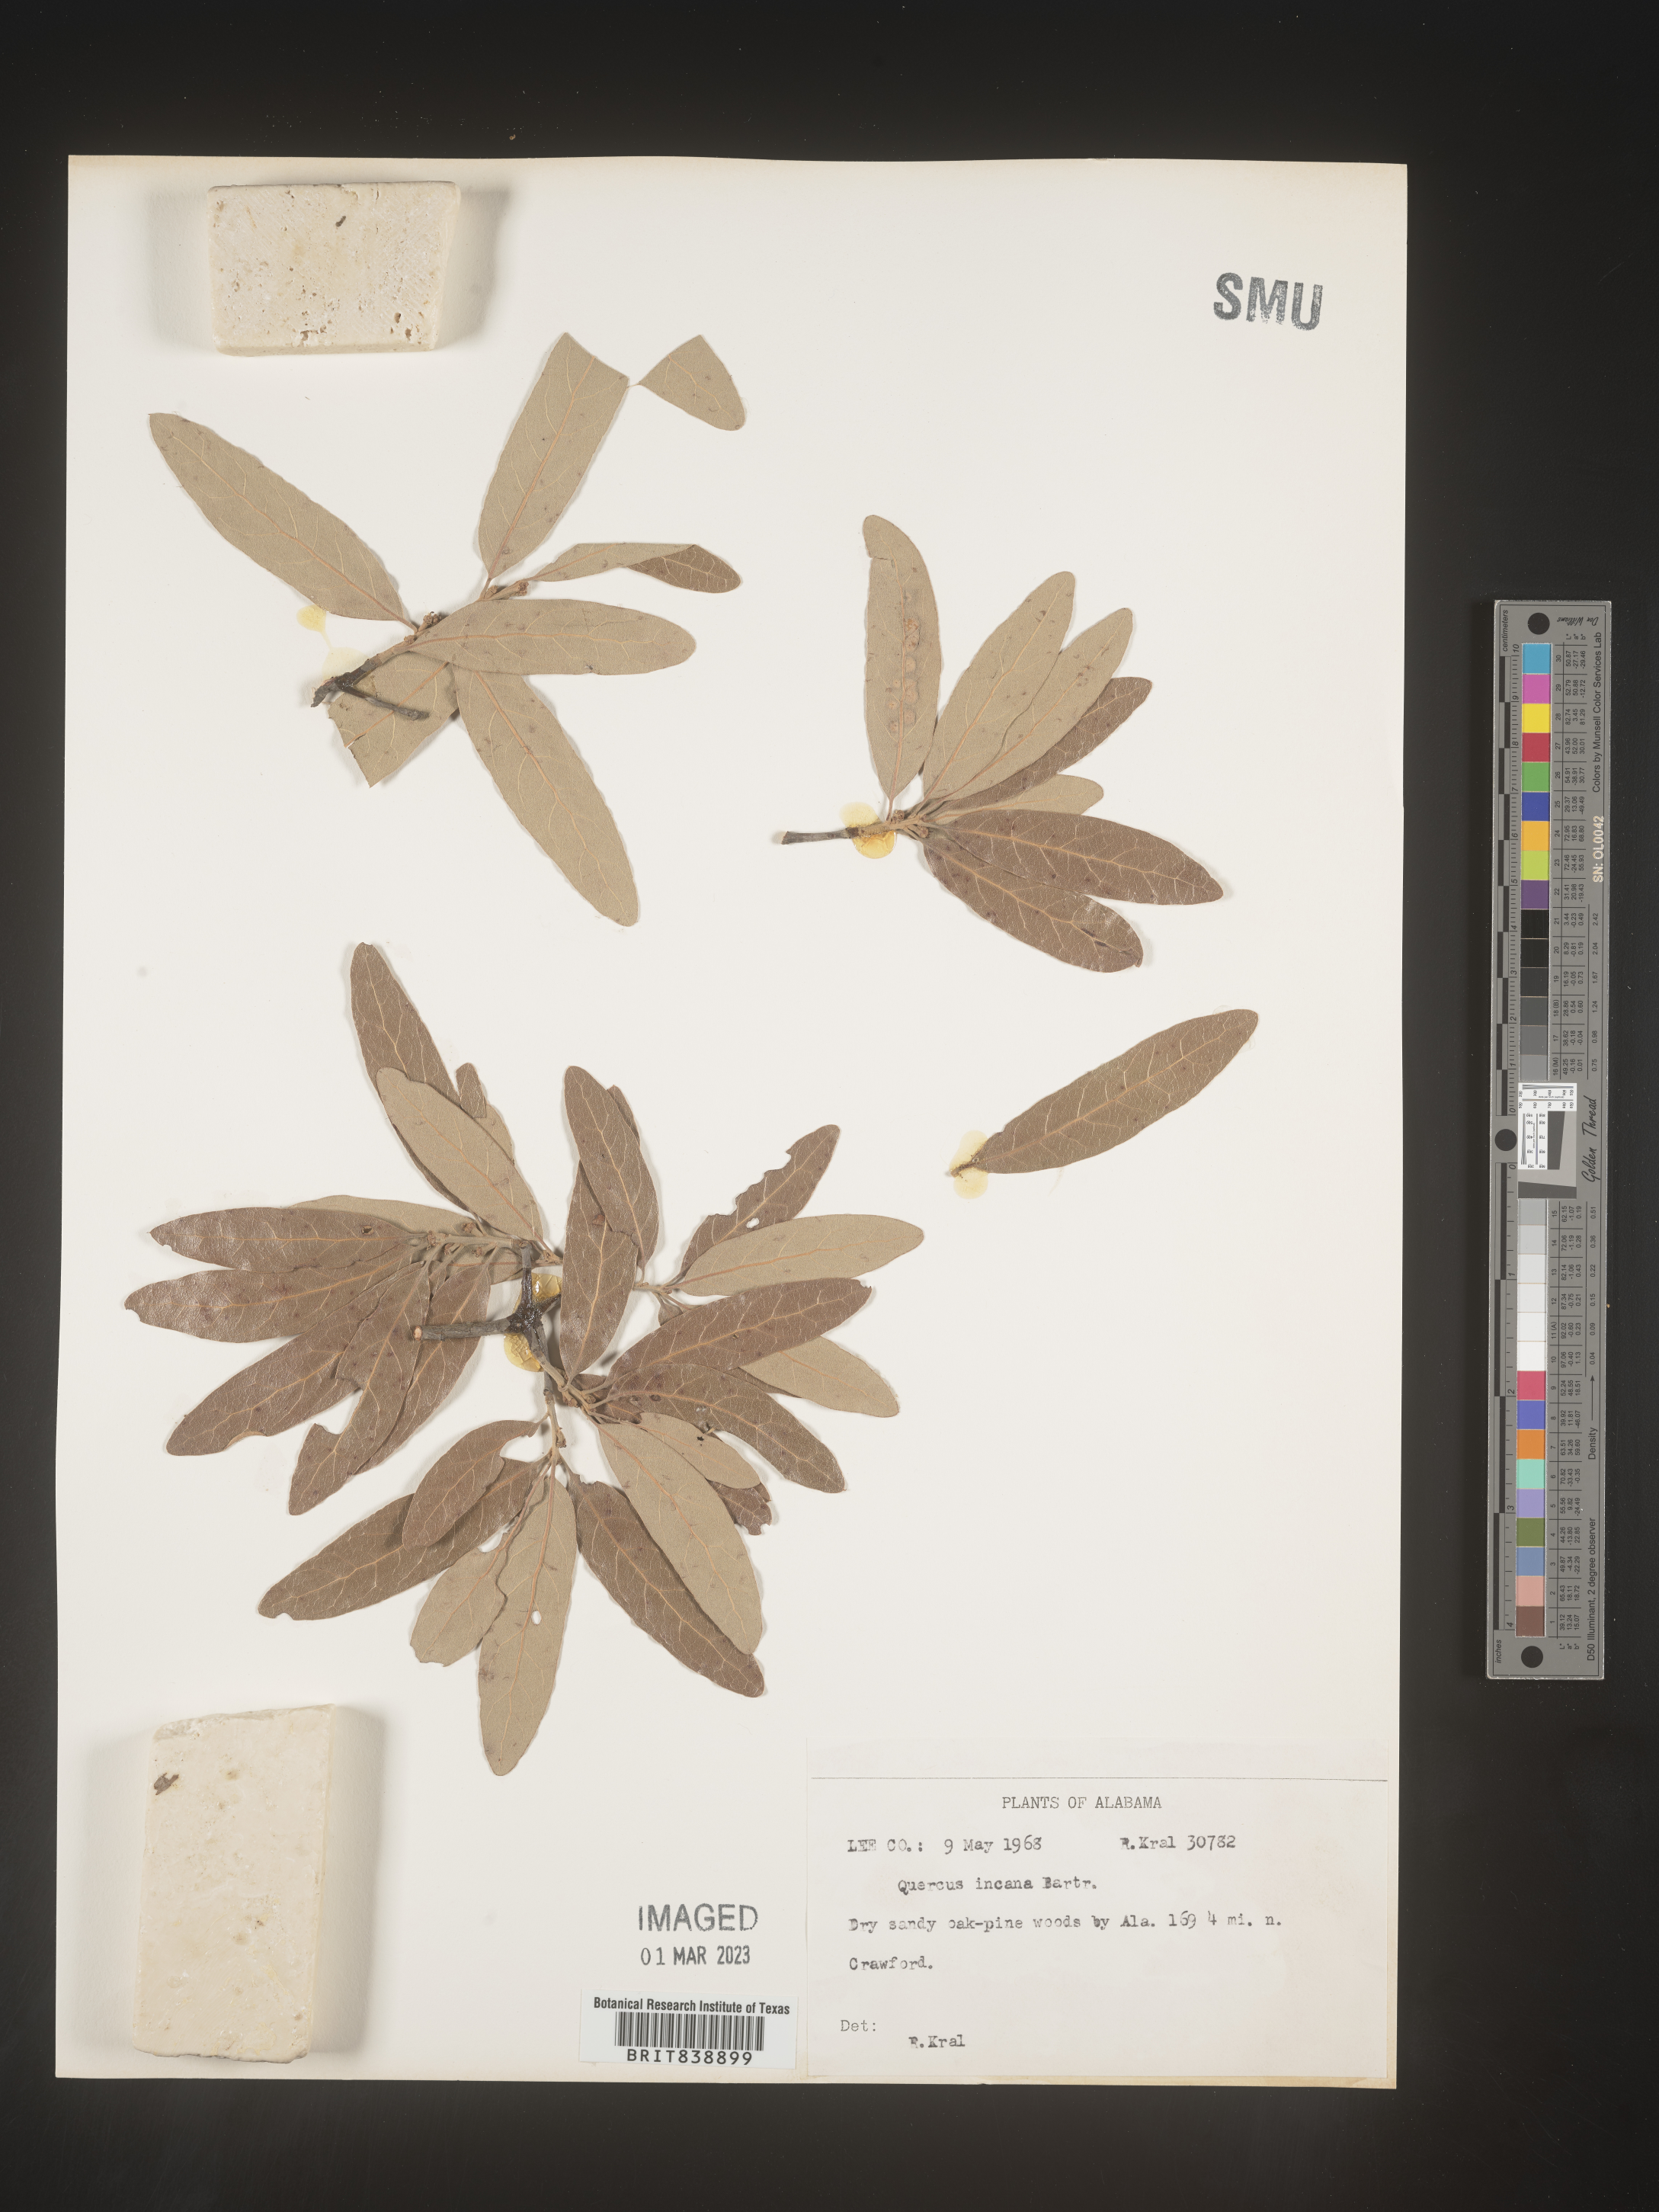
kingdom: Plantae
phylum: Tracheophyta
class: Magnoliopsida
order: Fagales
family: Fagaceae
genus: Quercus
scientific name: Quercus incana
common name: Bluejack oak
